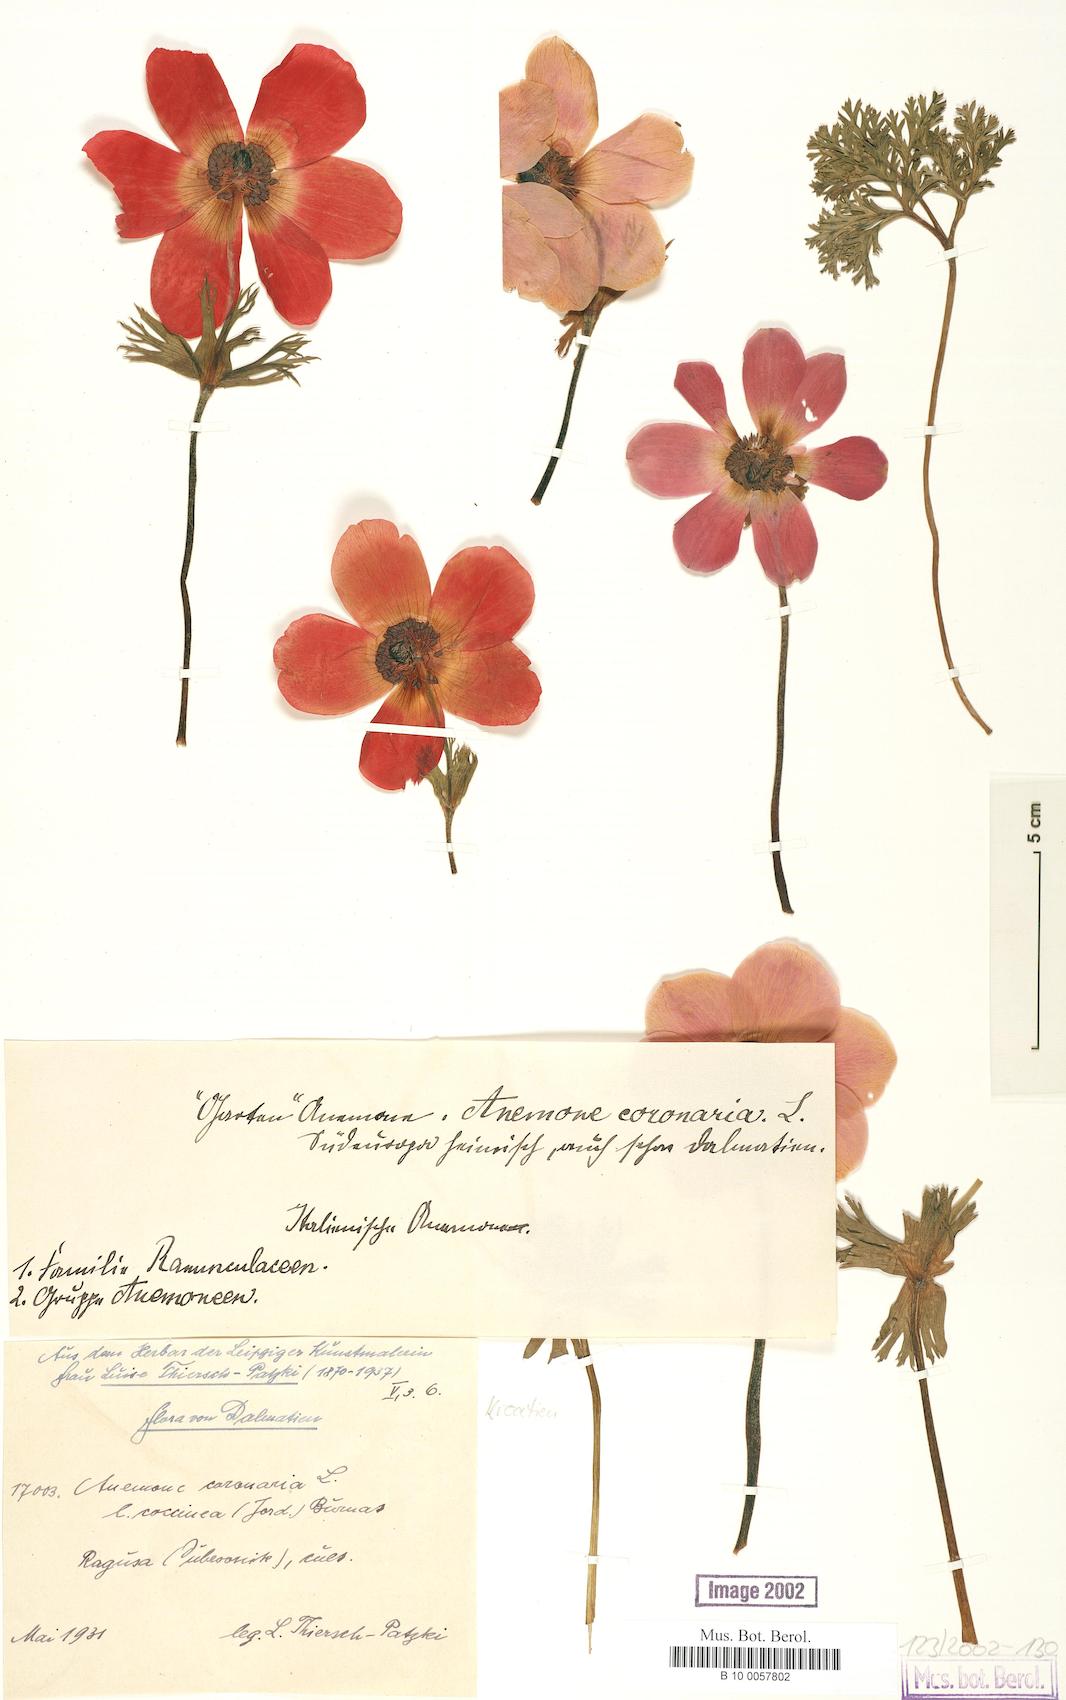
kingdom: Plantae
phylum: Tracheophyta
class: Magnoliopsida
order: Ranunculales
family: Ranunculaceae
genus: Anemone
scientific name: Anemone coronaria
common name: Poppy anemone
